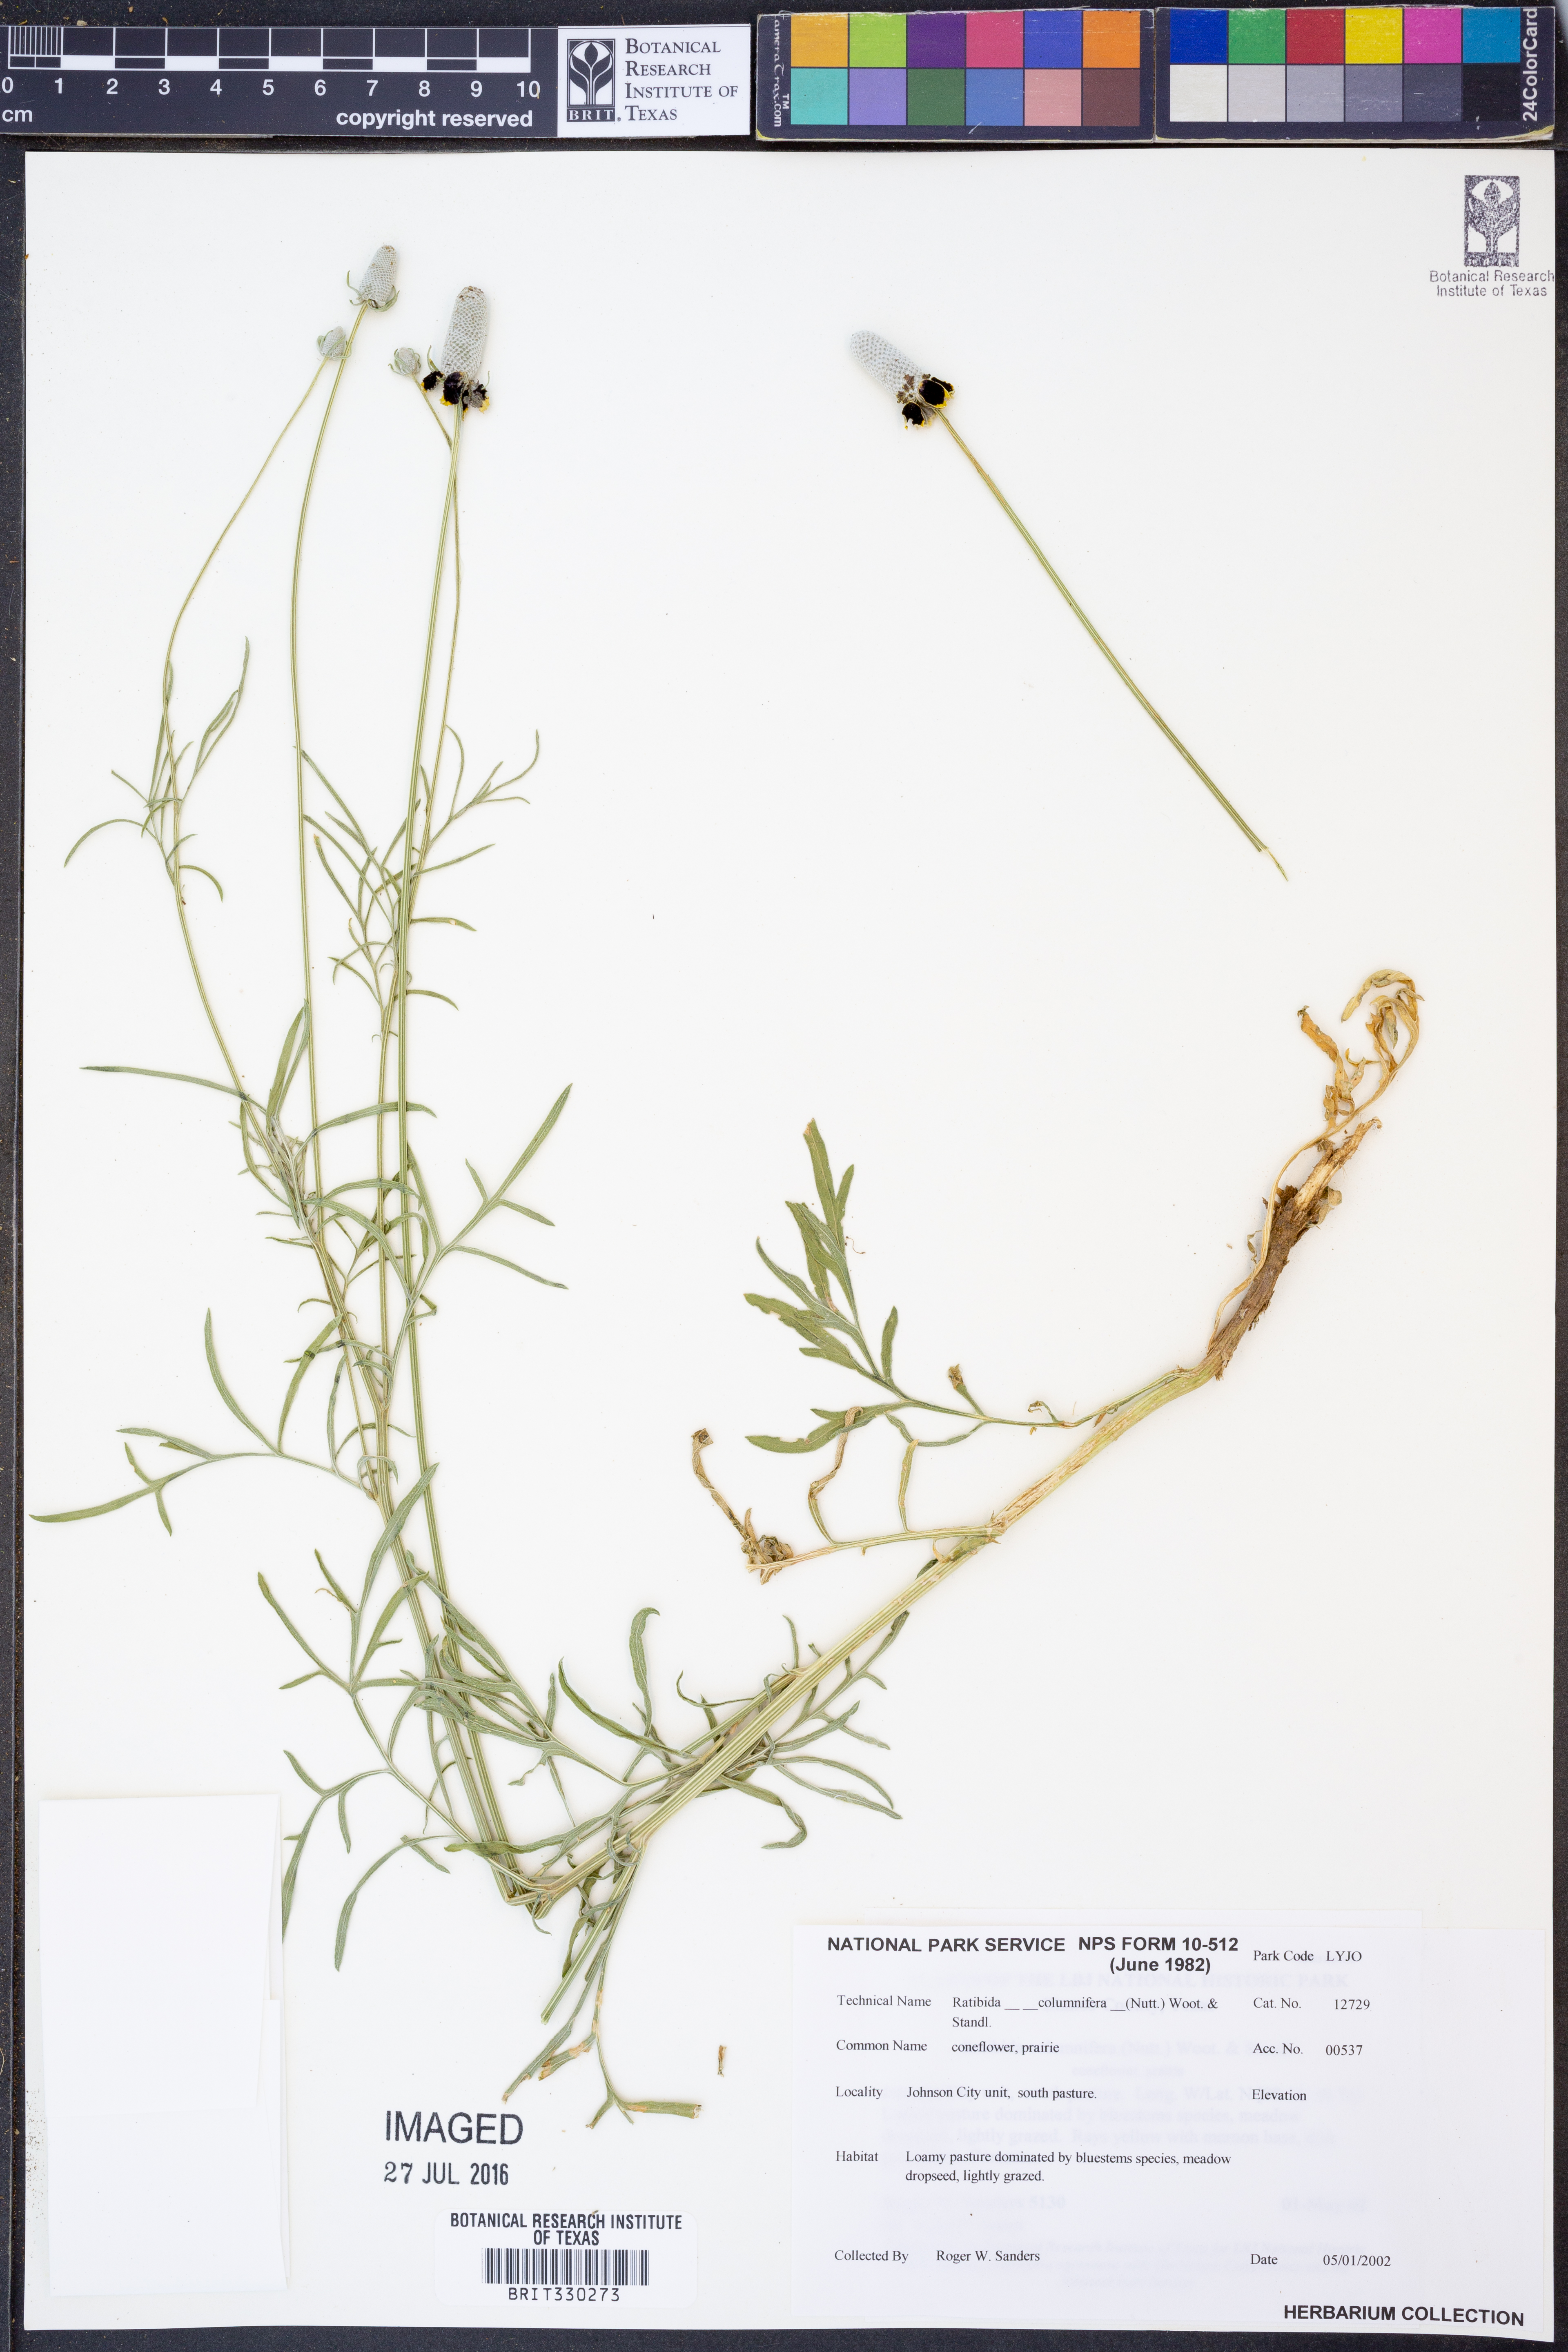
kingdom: Plantae
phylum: Tracheophyta
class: Magnoliopsida
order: Asterales
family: Asteraceae
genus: Ratibida
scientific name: Ratibida columnifera
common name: Prairie coneflower
